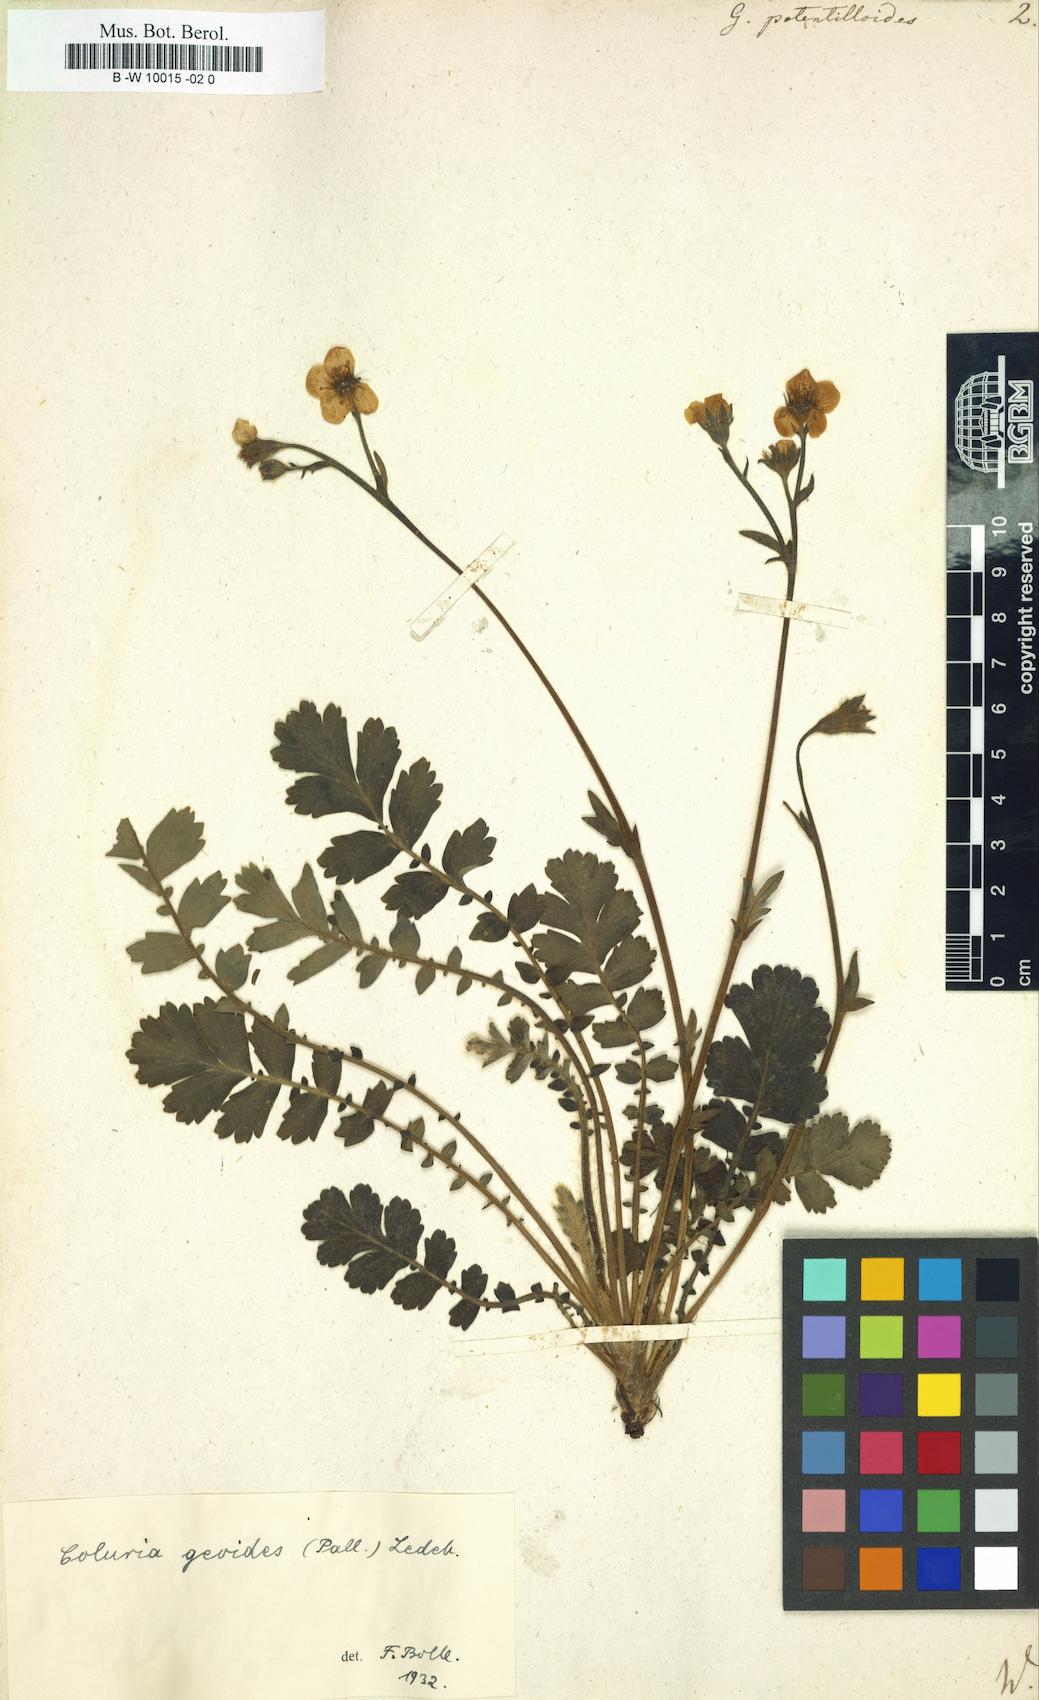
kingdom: Plantae
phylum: Tracheophyta
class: Magnoliopsida
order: Rosales
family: Rosaceae
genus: Drymocallis
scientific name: Drymocallis geoides
